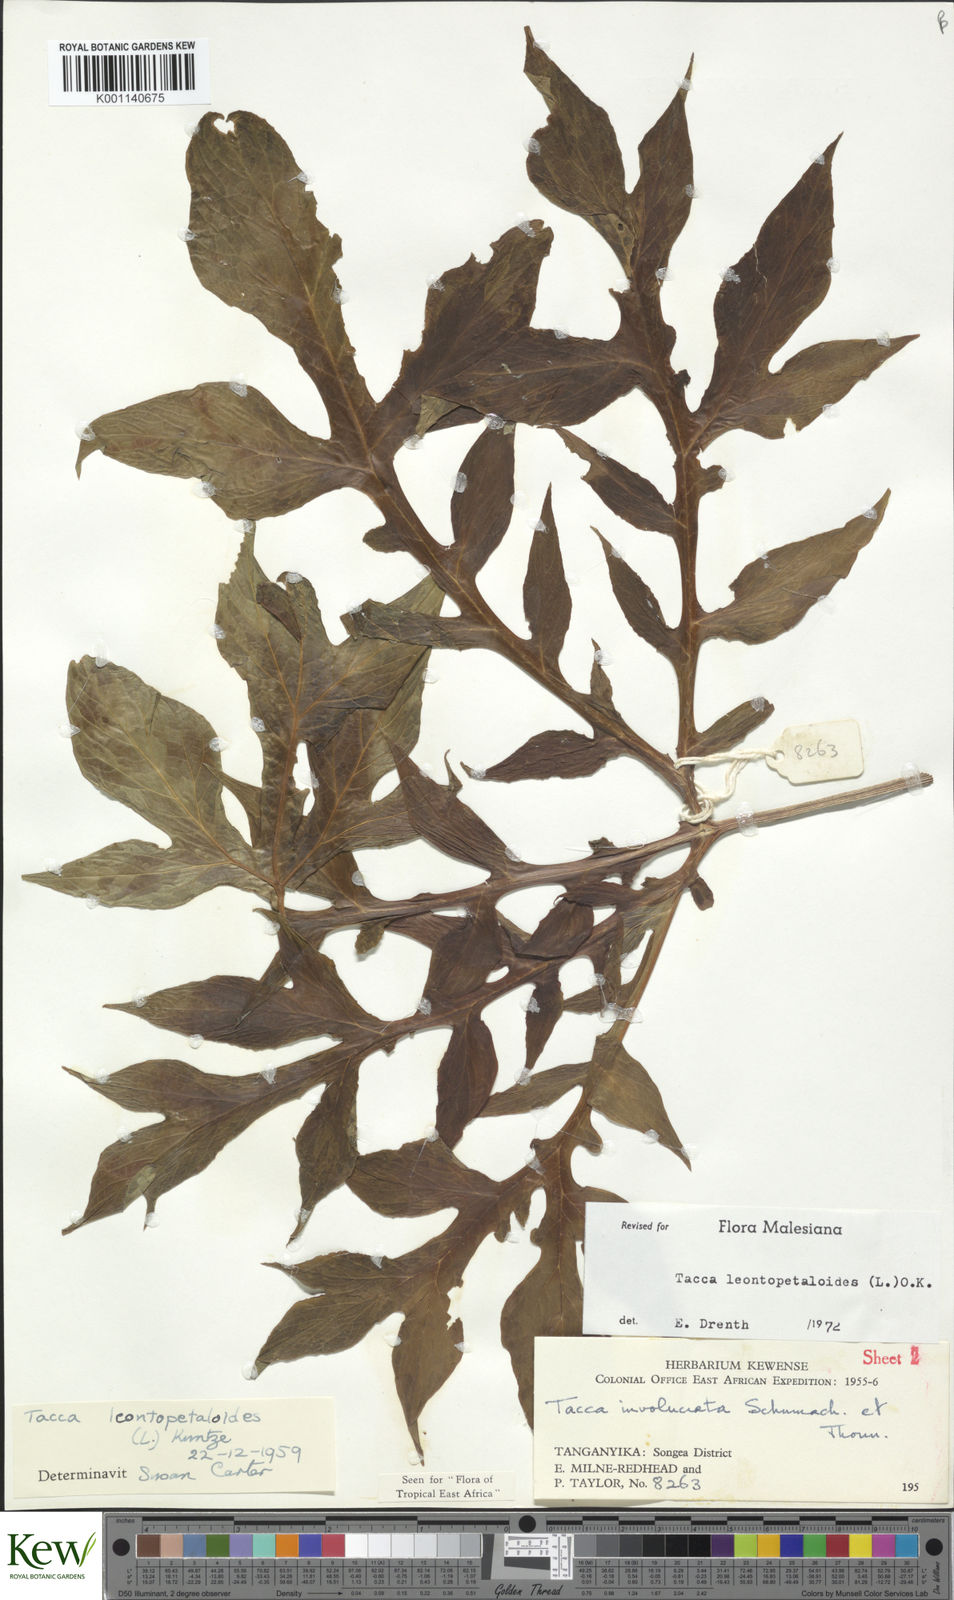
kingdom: Plantae
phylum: Tracheophyta
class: Liliopsida
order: Dioscoreales
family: Dioscoreaceae
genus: Tacca
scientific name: Tacca leontopetaloides
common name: Arrowroot
